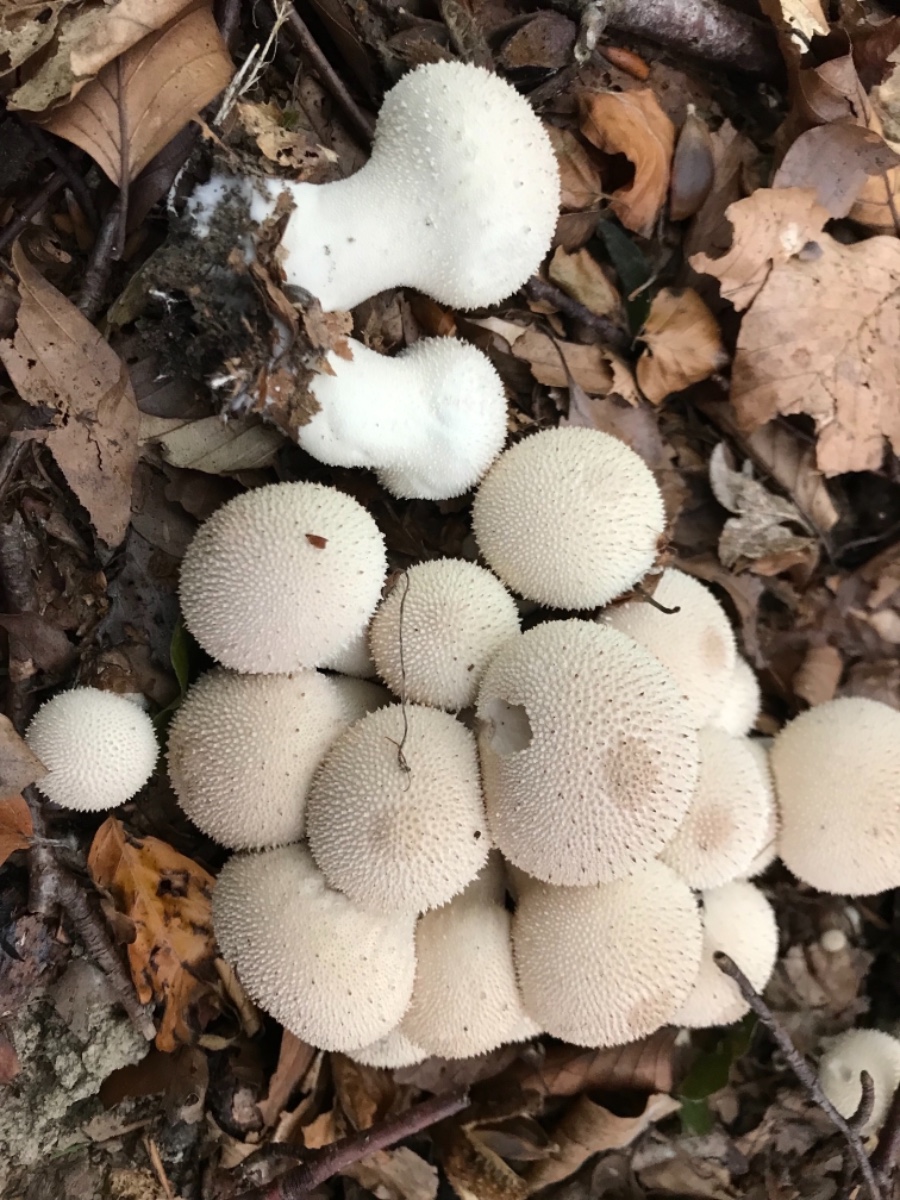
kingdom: Fungi
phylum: Basidiomycota
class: Agaricomycetes
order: Agaricales
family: Lycoperdaceae
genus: Lycoperdon
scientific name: Lycoperdon perlatum
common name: krystal-støvbold
